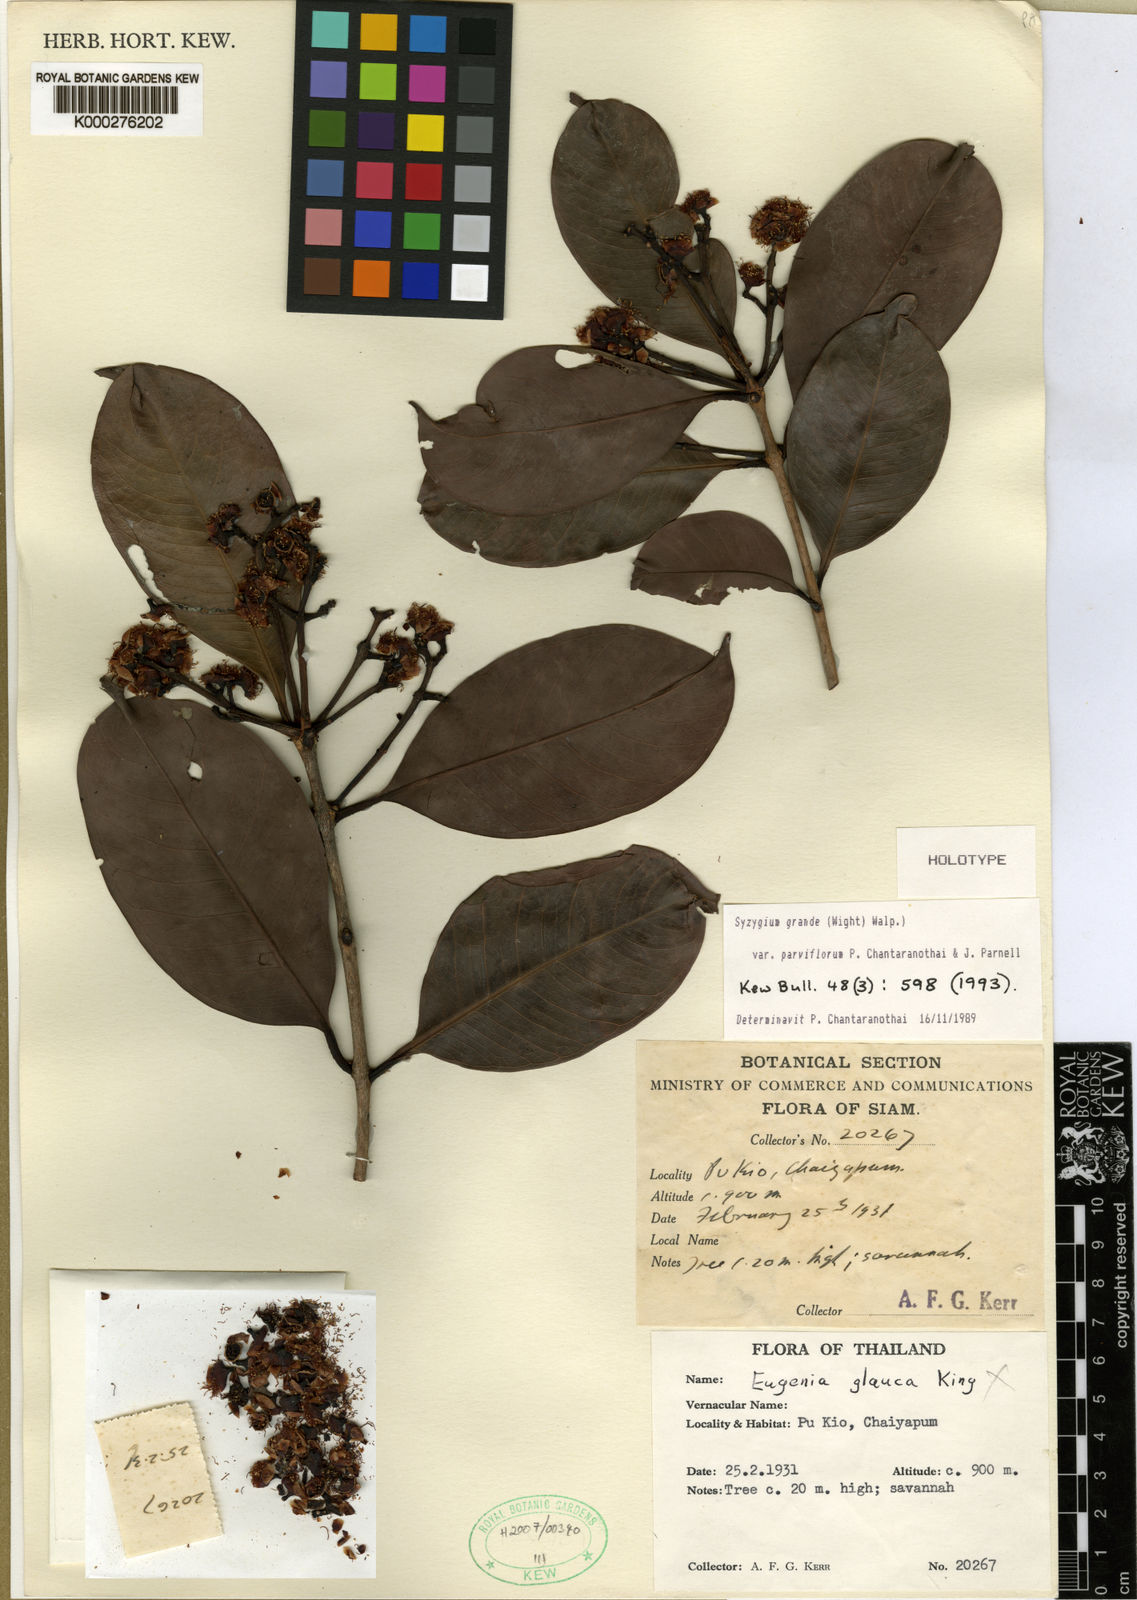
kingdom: Plantae
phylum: Tracheophyta
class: Magnoliopsida
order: Myrtales
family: Myrtaceae
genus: Syzygium
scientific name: Syzygium grande
